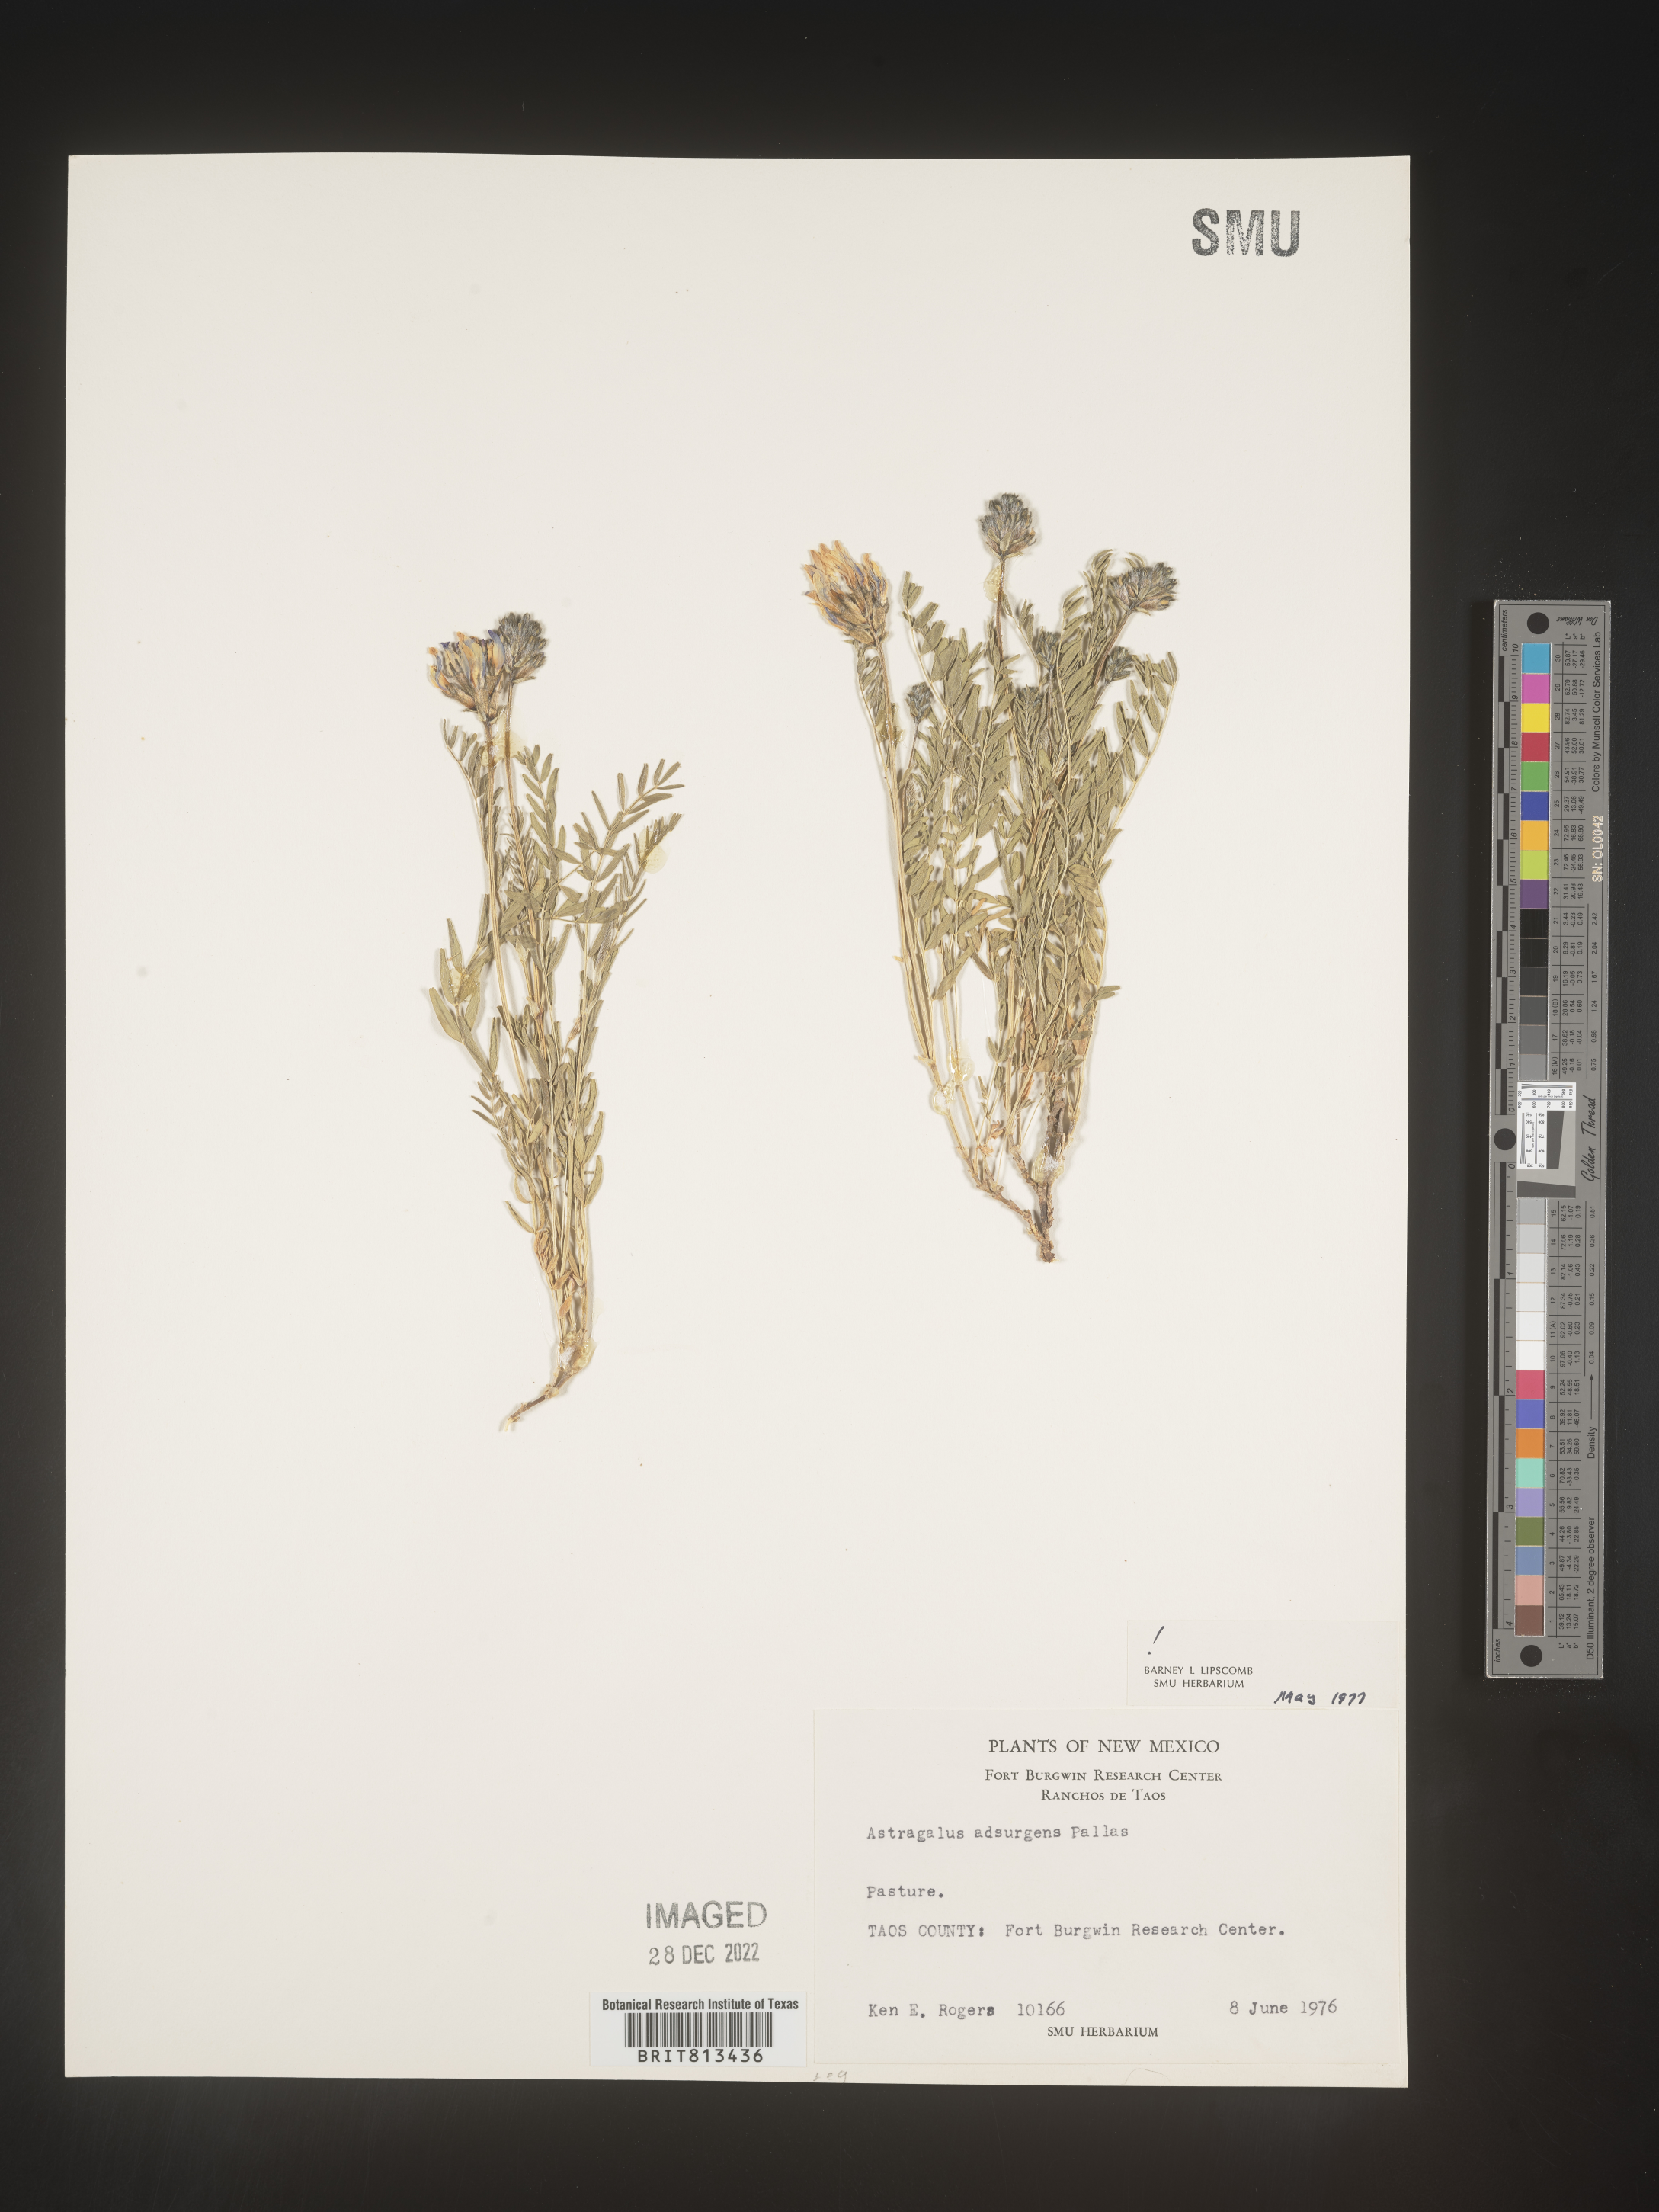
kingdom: Plantae
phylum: Tracheophyta
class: Magnoliopsida
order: Fabales
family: Fabaceae
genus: Astragalus
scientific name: Astragalus
